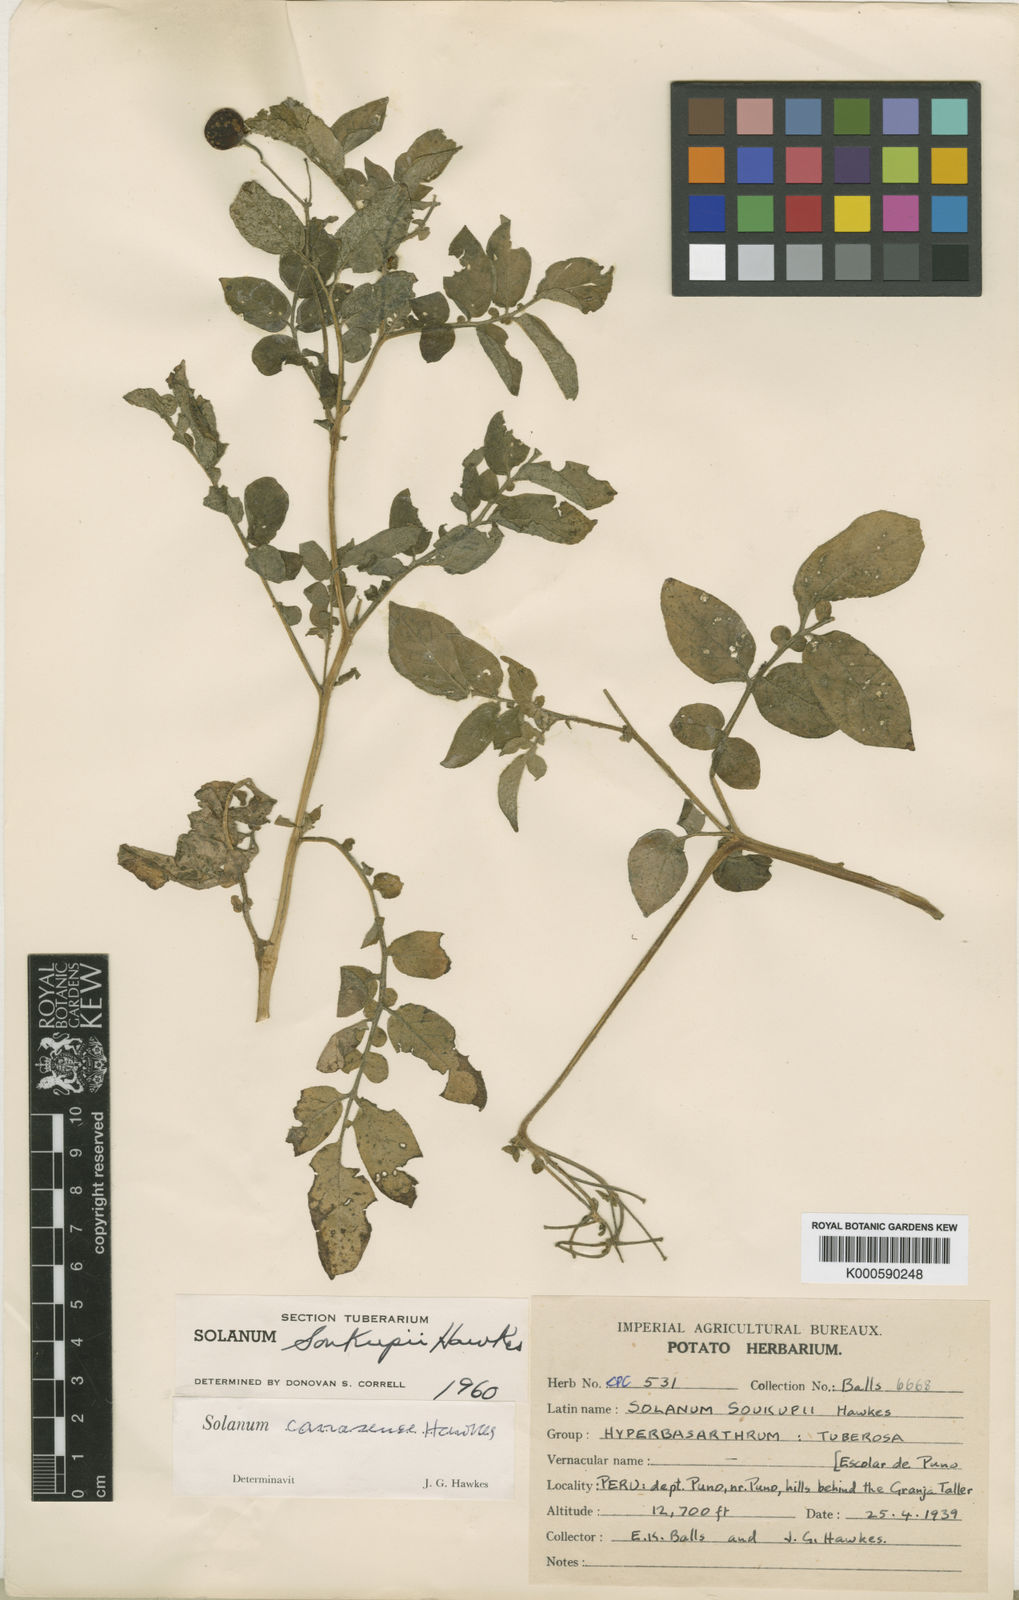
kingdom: Plantae
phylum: Tracheophyta
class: Magnoliopsida
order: Solanales
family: Solanaceae
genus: Solanum
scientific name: Solanum candolleanum
